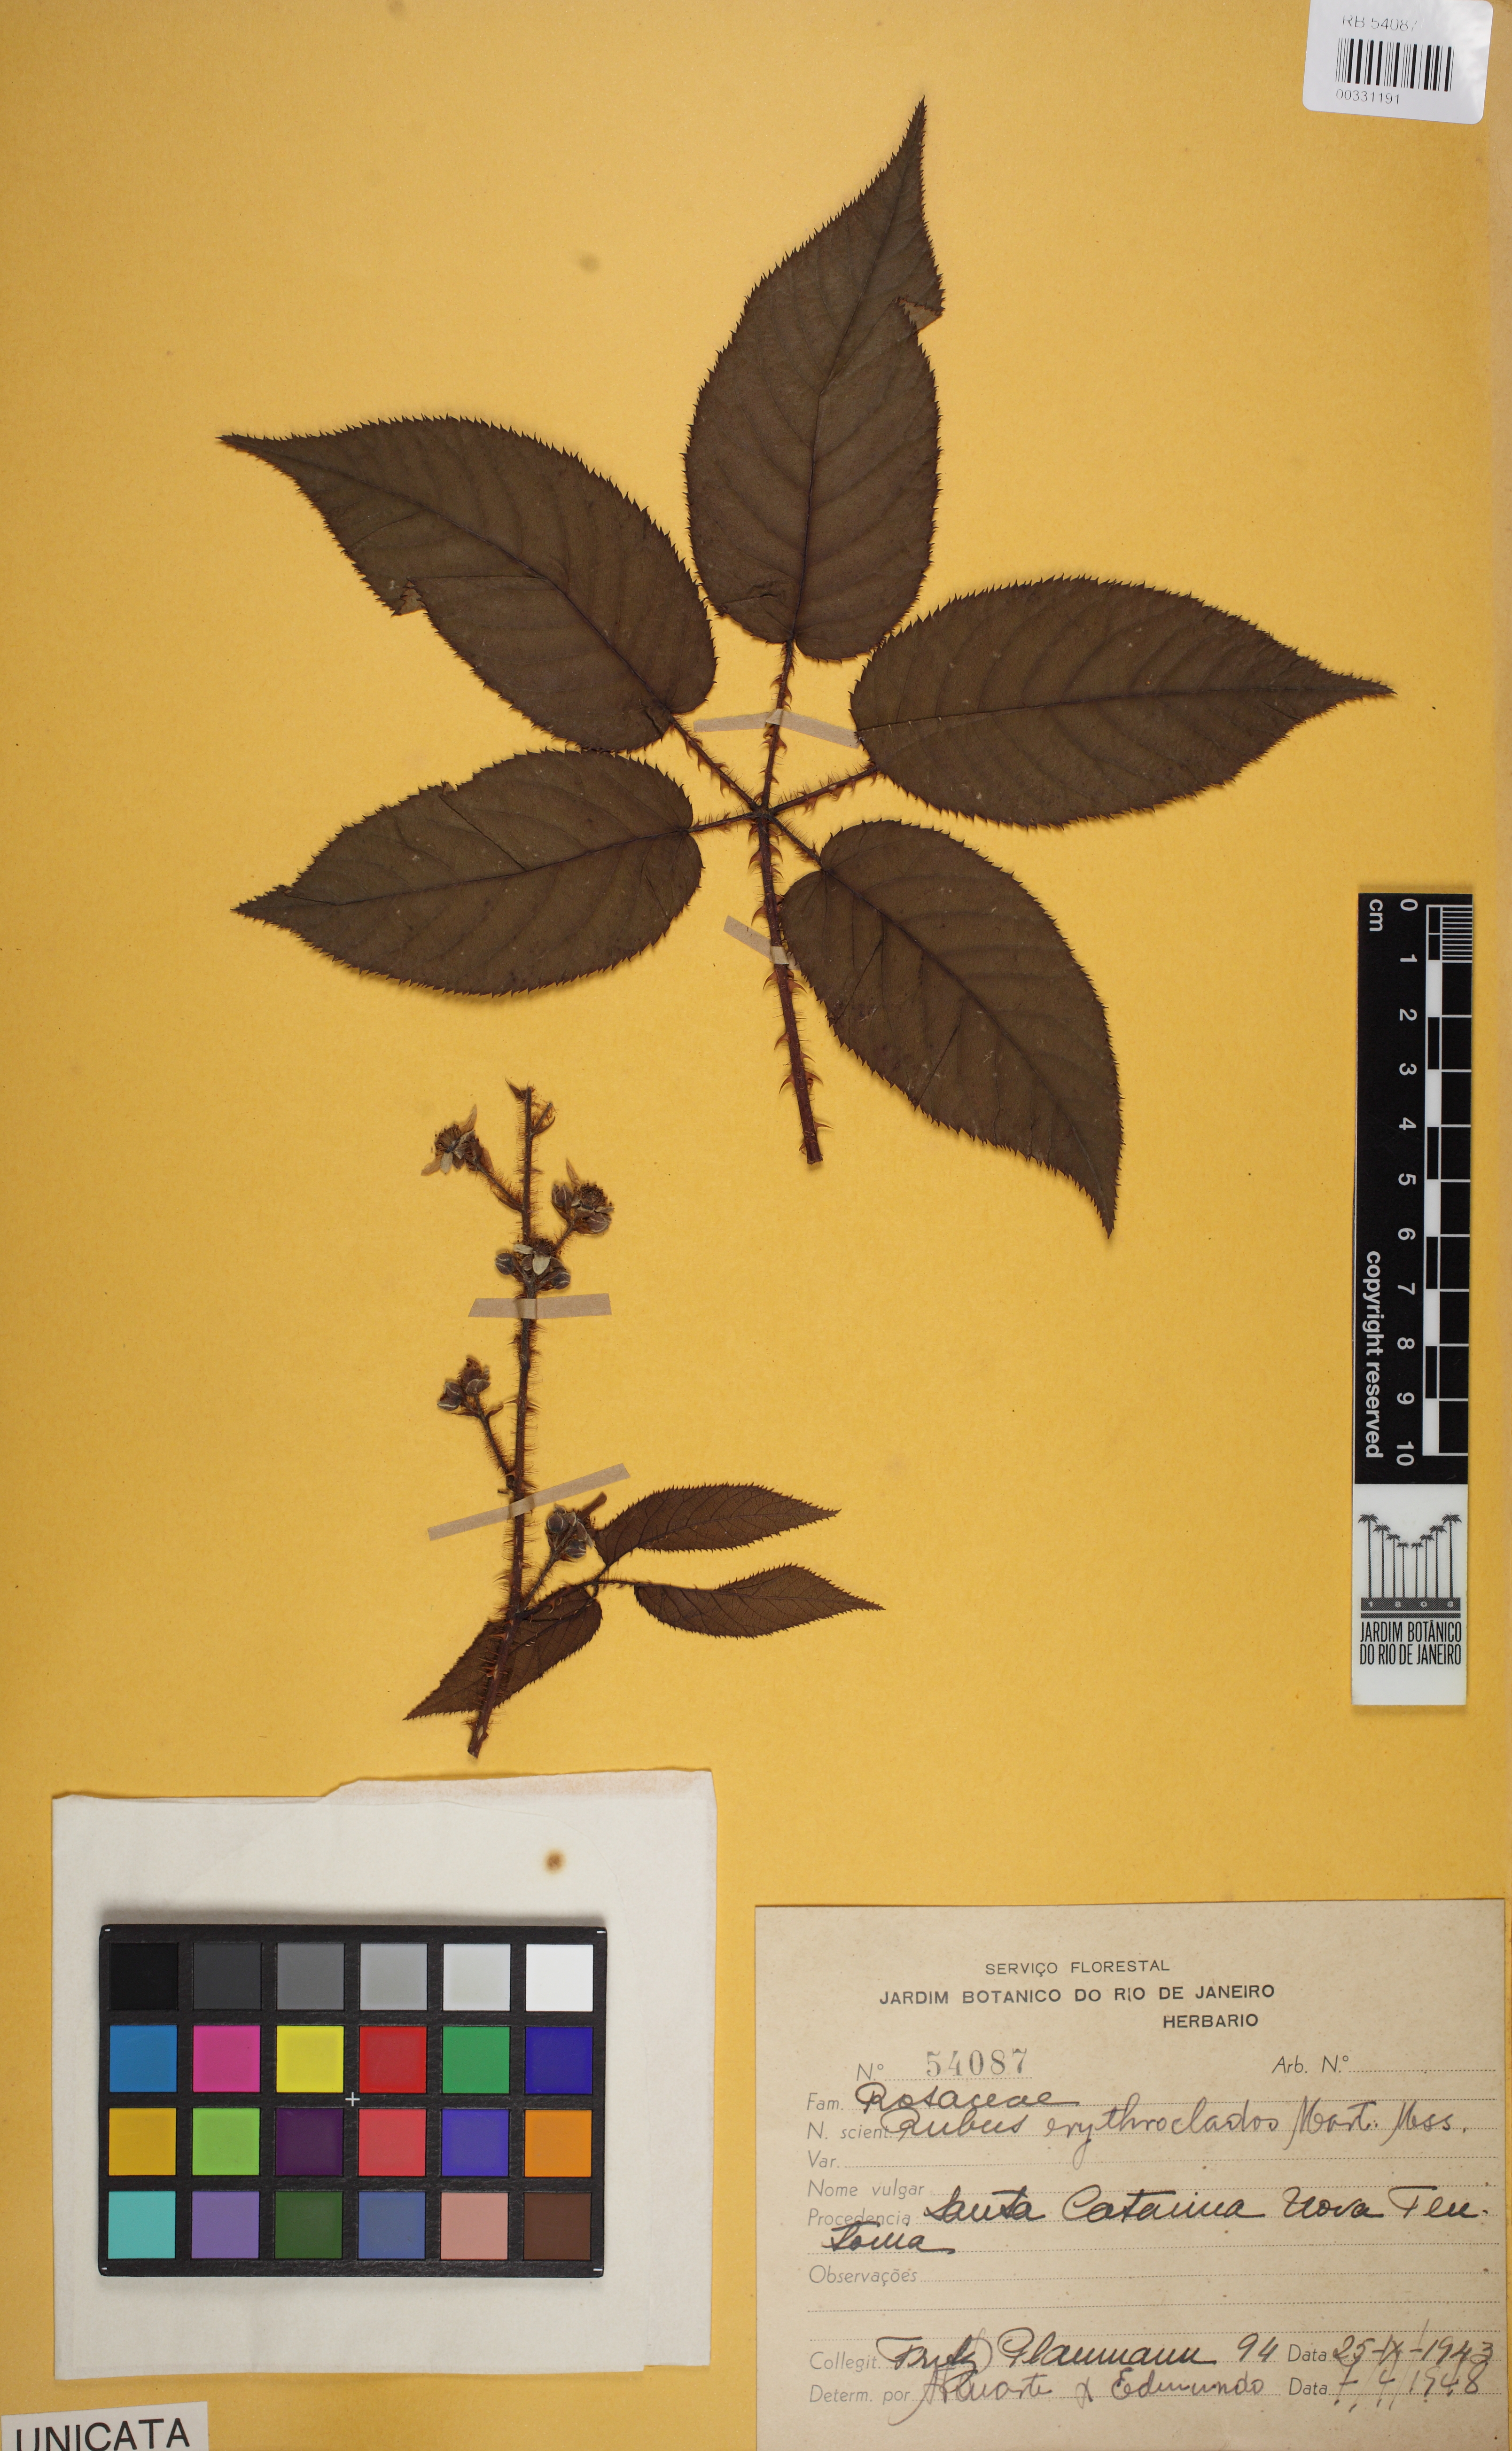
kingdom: Plantae
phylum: Tracheophyta
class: Magnoliopsida
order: Rosales
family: Rosaceae
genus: Rubus
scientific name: Rubus erythroclados
